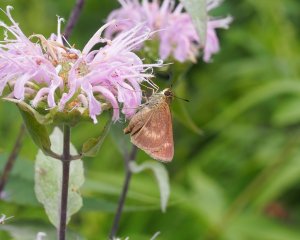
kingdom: Animalia
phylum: Arthropoda
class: Insecta
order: Lepidoptera
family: Hesperiidae
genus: Polites
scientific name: Polites egeremet
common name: Northern Broken-Dash
